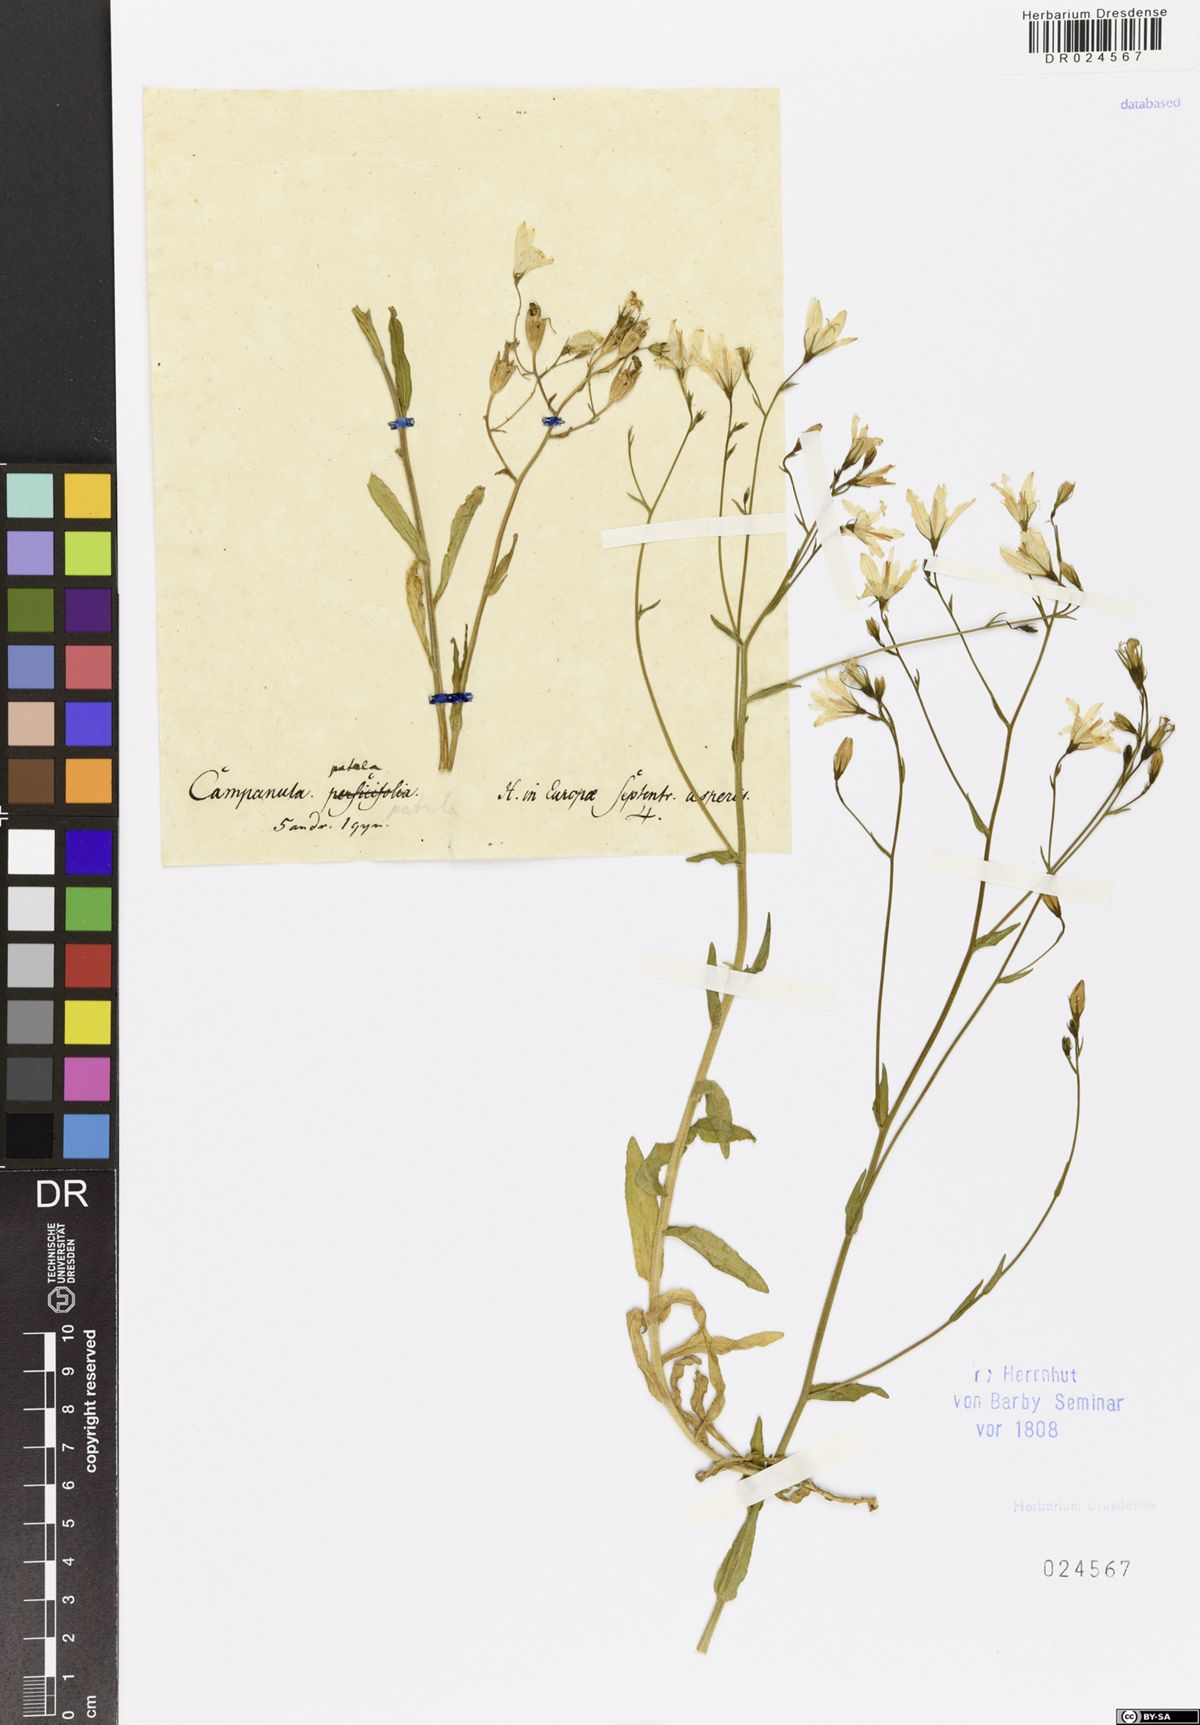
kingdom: Plantae
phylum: Tracheophyta
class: Magnoliopsida
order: Asterales
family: Campanulaceae
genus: Campanula
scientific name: Campanula patula
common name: Spreading bellflower
